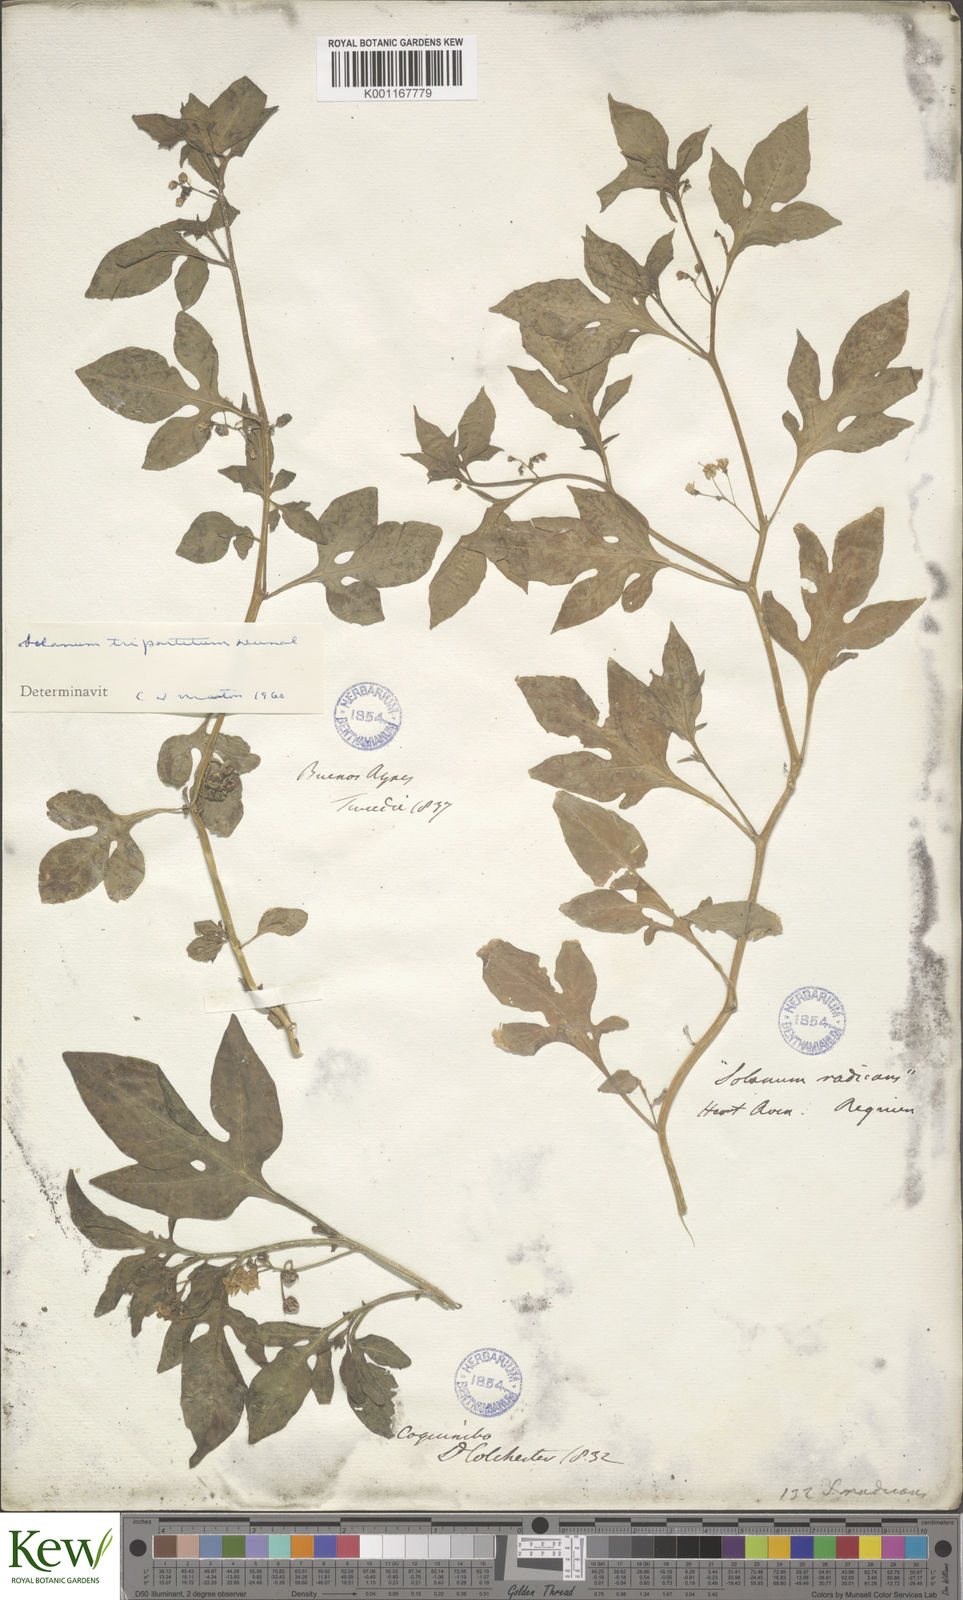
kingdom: Plantae
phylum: Tracheophyta
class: Magnoliopsida
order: Solanales
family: Solanaceae
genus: Solanum
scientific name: Solanum palitans
